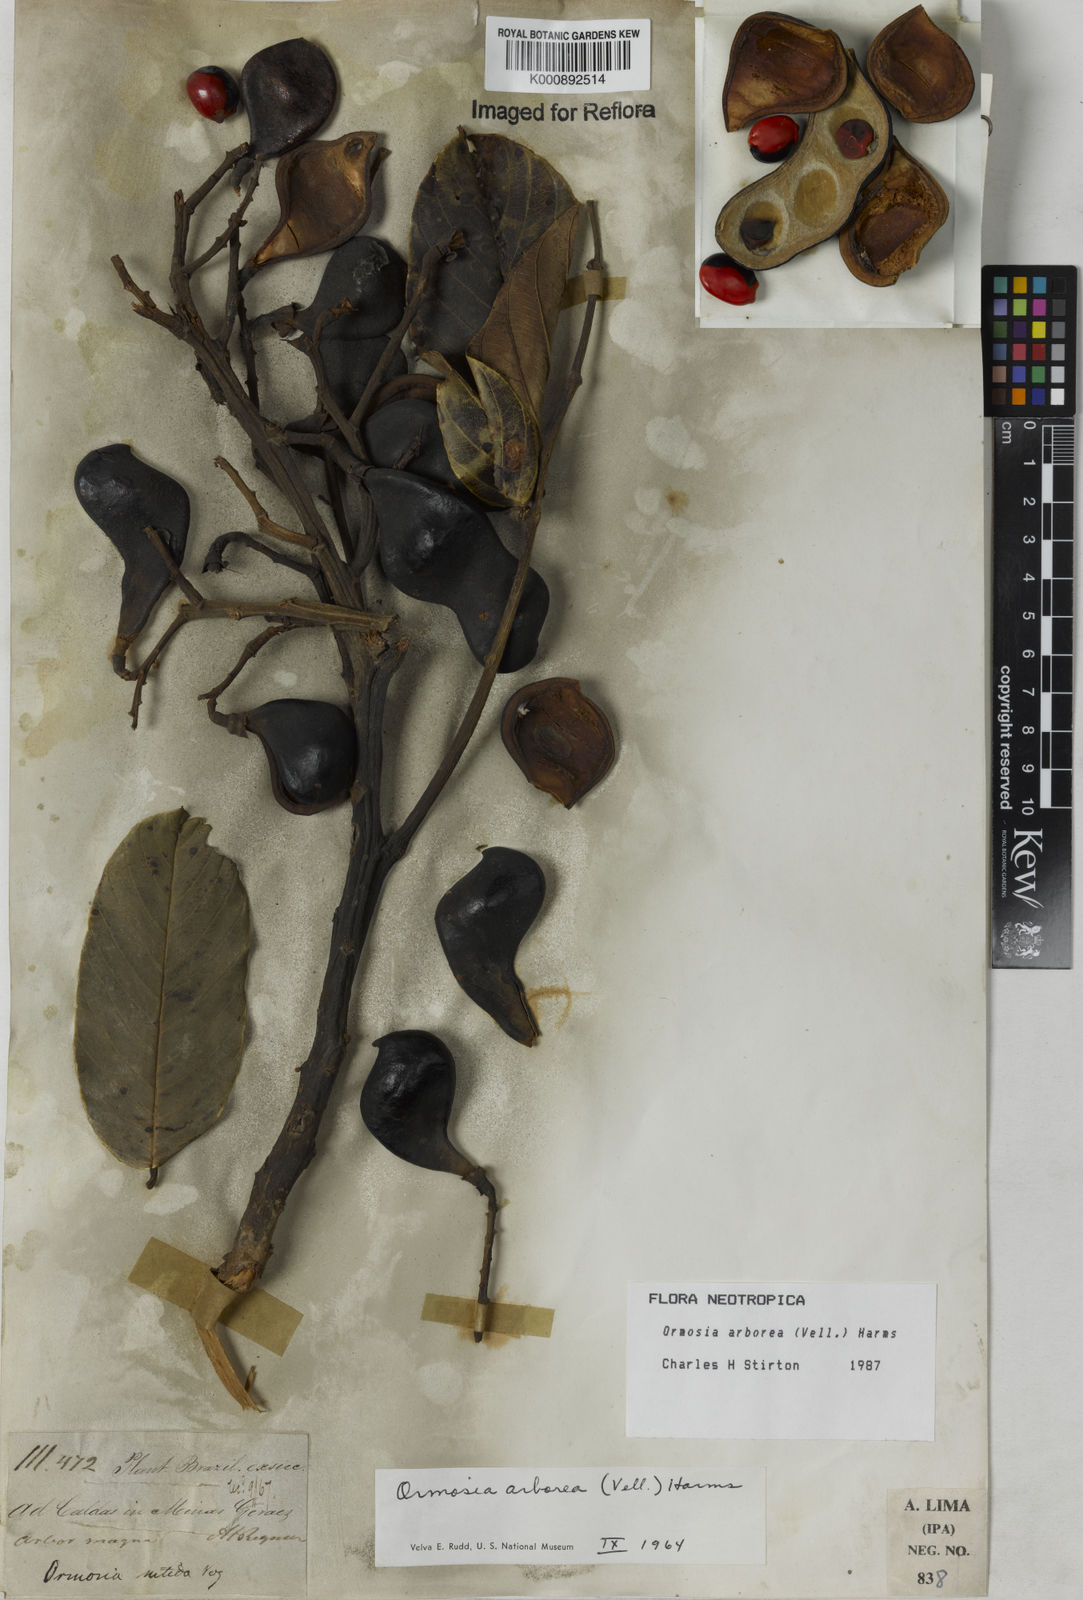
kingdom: Plantae
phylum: Tracheophyta
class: Magnoliopsida
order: Fabales
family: Fabaceae
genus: Ormosia
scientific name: Ormosia arborea
